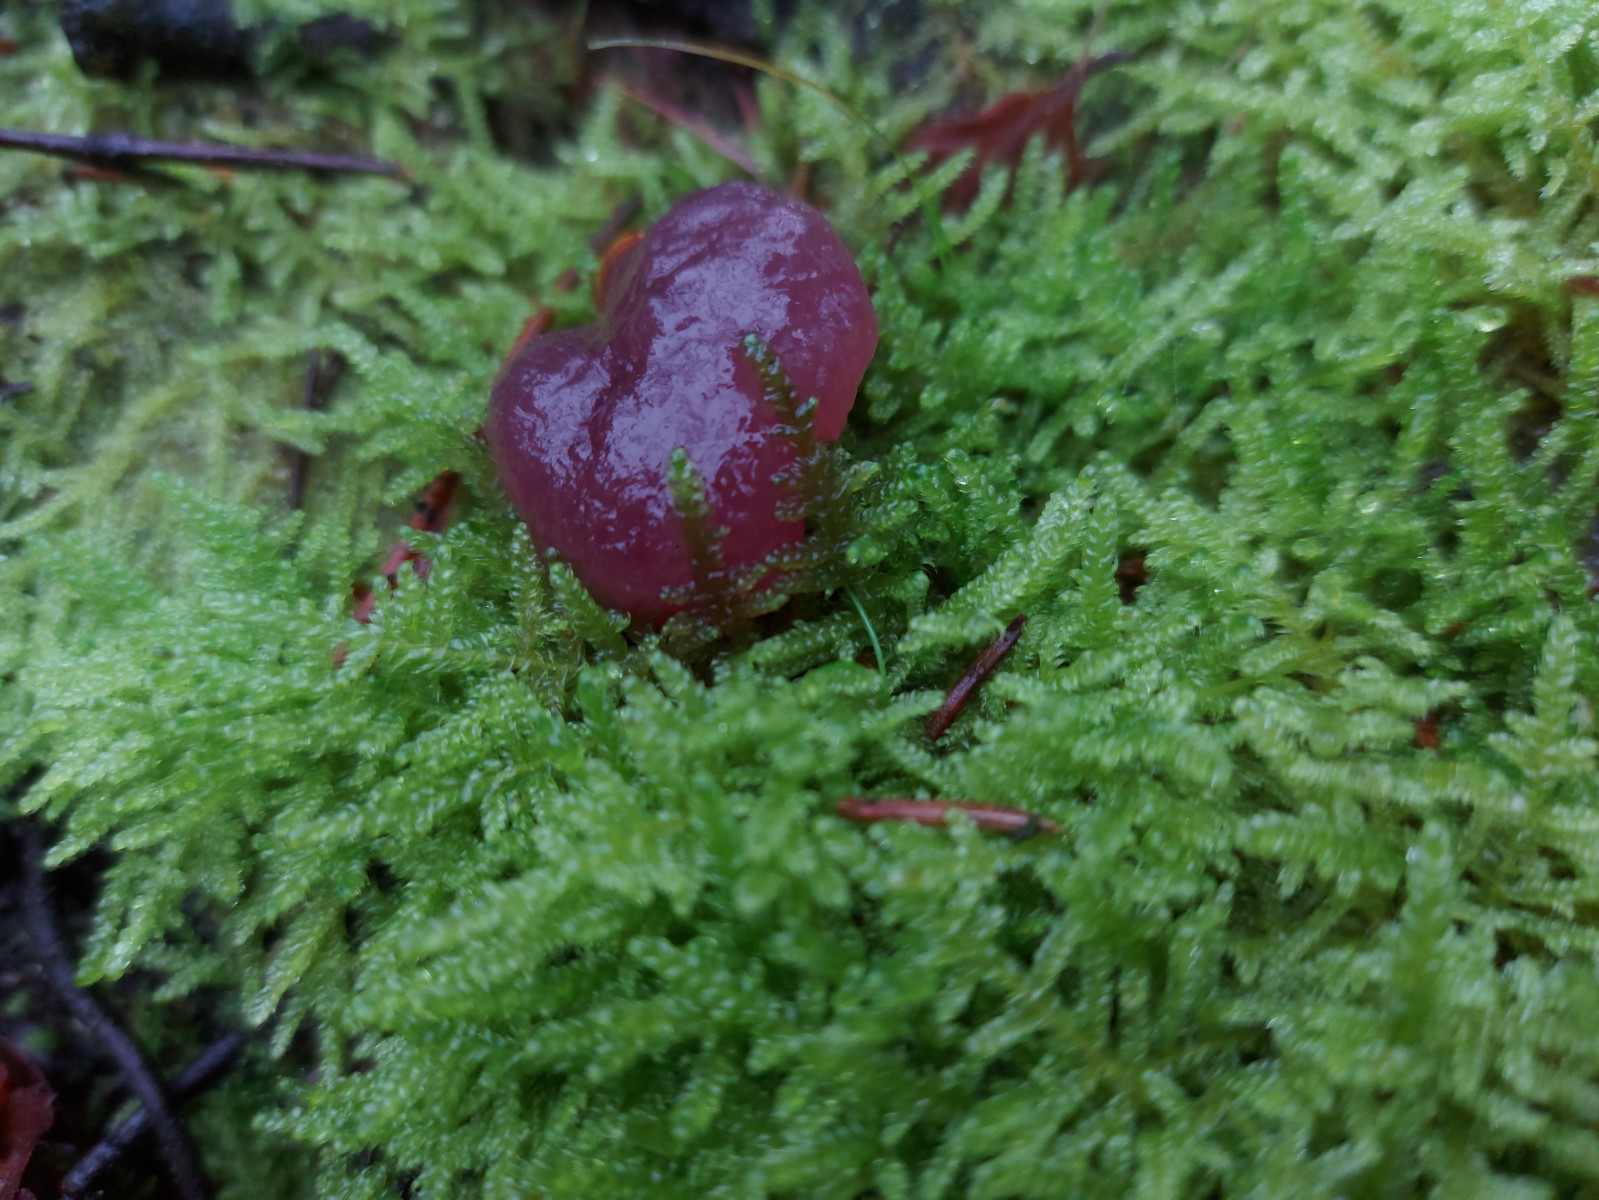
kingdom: Fungi
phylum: Ascomycota
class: Leotiomycetes
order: Helotiales
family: Helotiaceae
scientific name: Helotiaceae
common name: stilkskivefamilien
